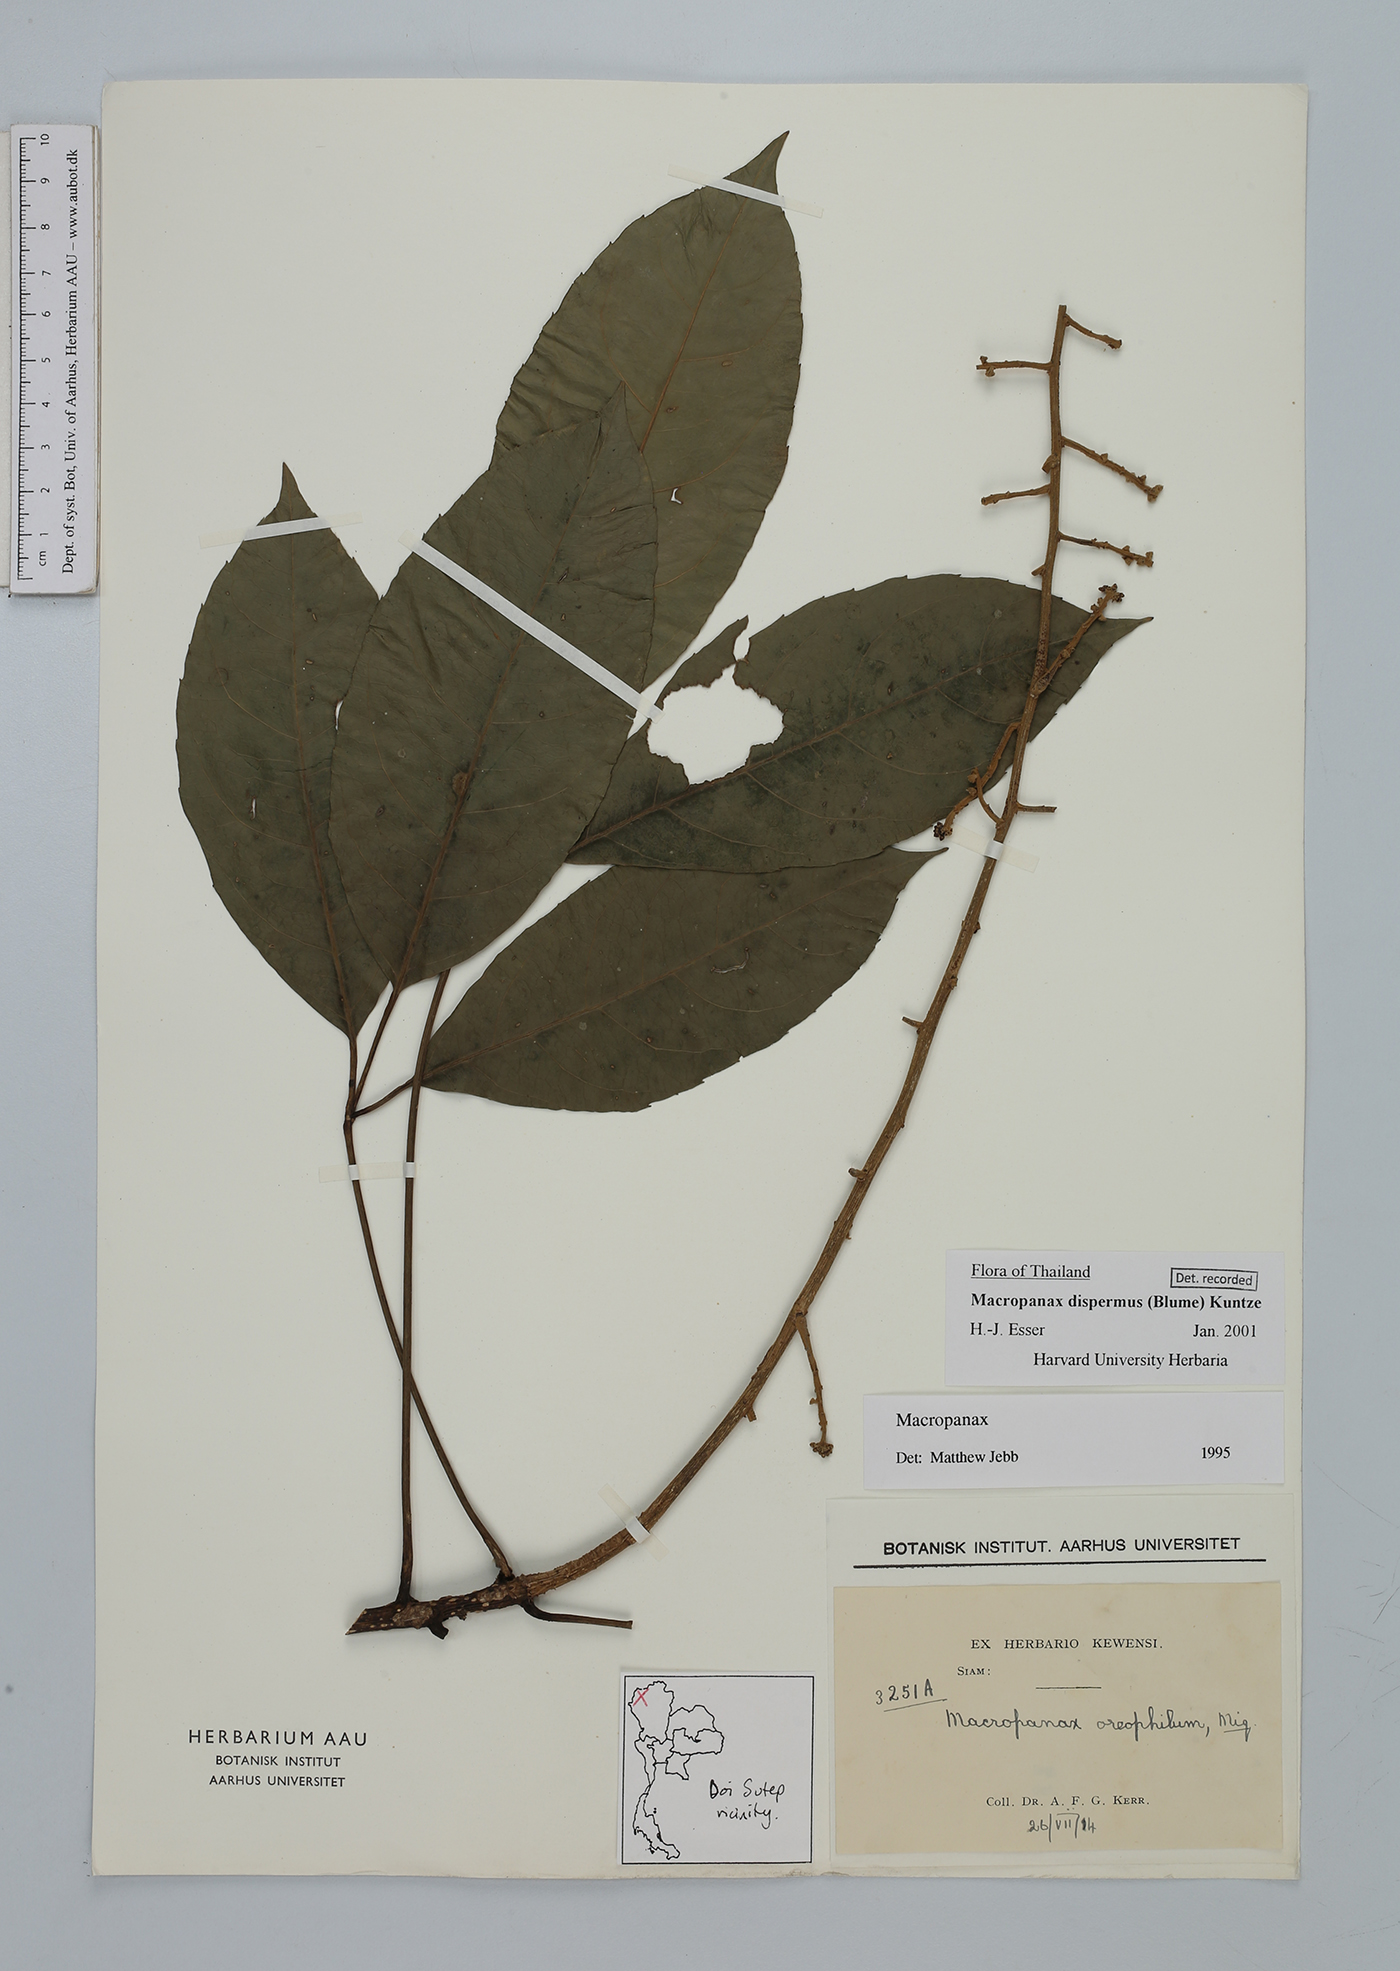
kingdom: Plantae
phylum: Tracheophyta
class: Magnoliopsida
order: Apiales
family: Araliaceae
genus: Macropanax
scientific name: Macropanax dispermus
